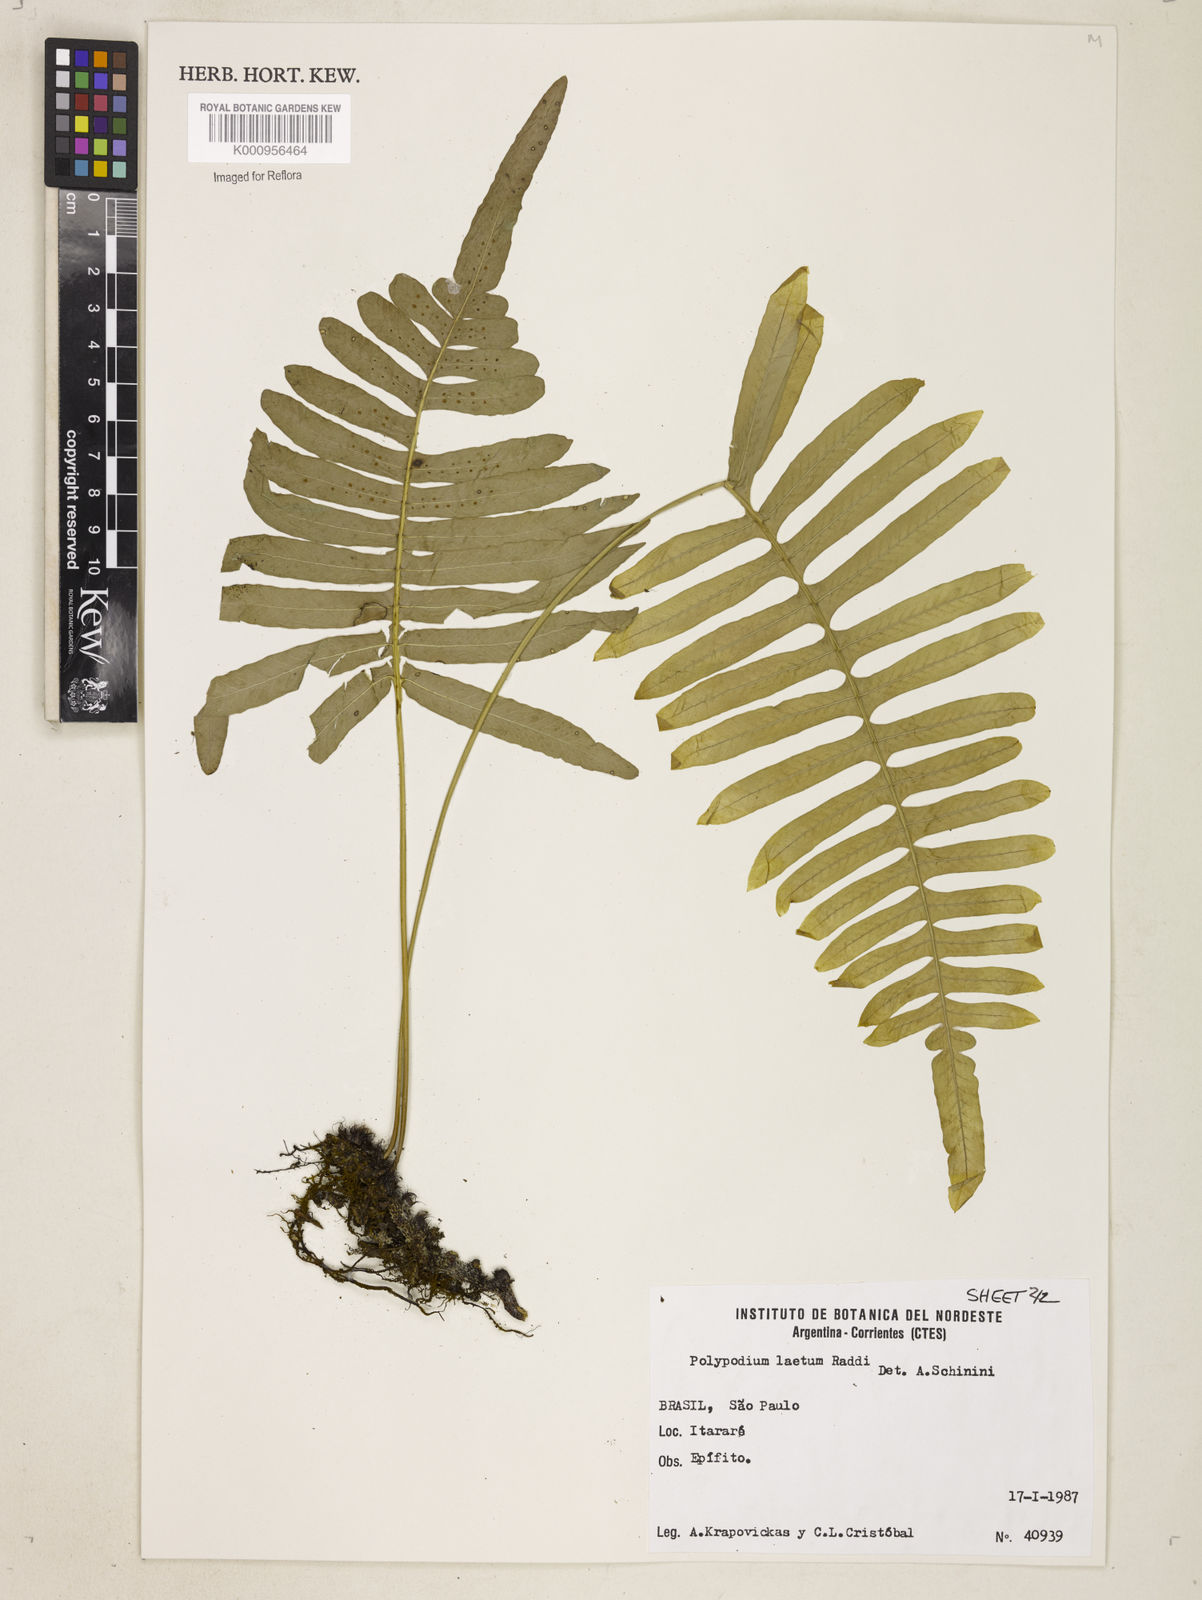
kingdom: Plantae
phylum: Tracheophyta
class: Polypodiopsida
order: Polypodiales
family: Polypodiaceae
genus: Polypodium
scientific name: Polypodium
